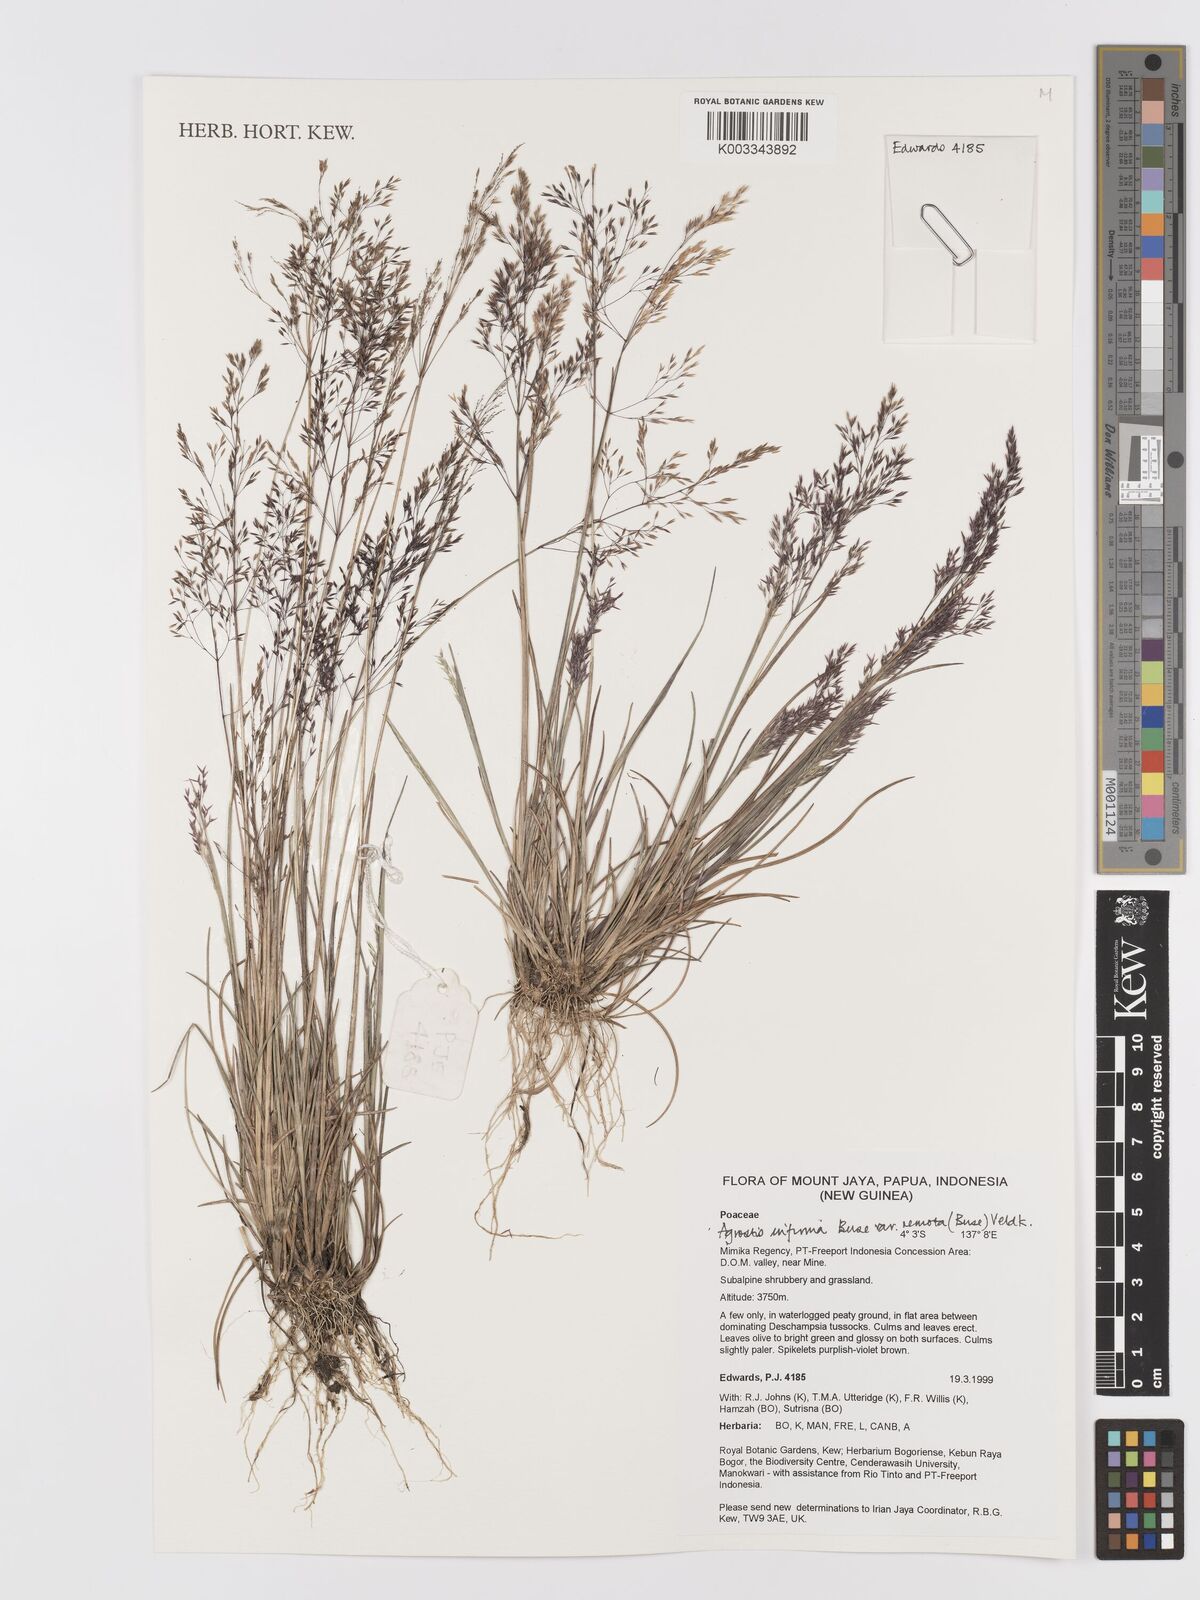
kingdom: Plantae
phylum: Tracheophyta
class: Liliopsida
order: Poales
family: Poaceae
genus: Agrostis
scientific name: Agrostis infirma
